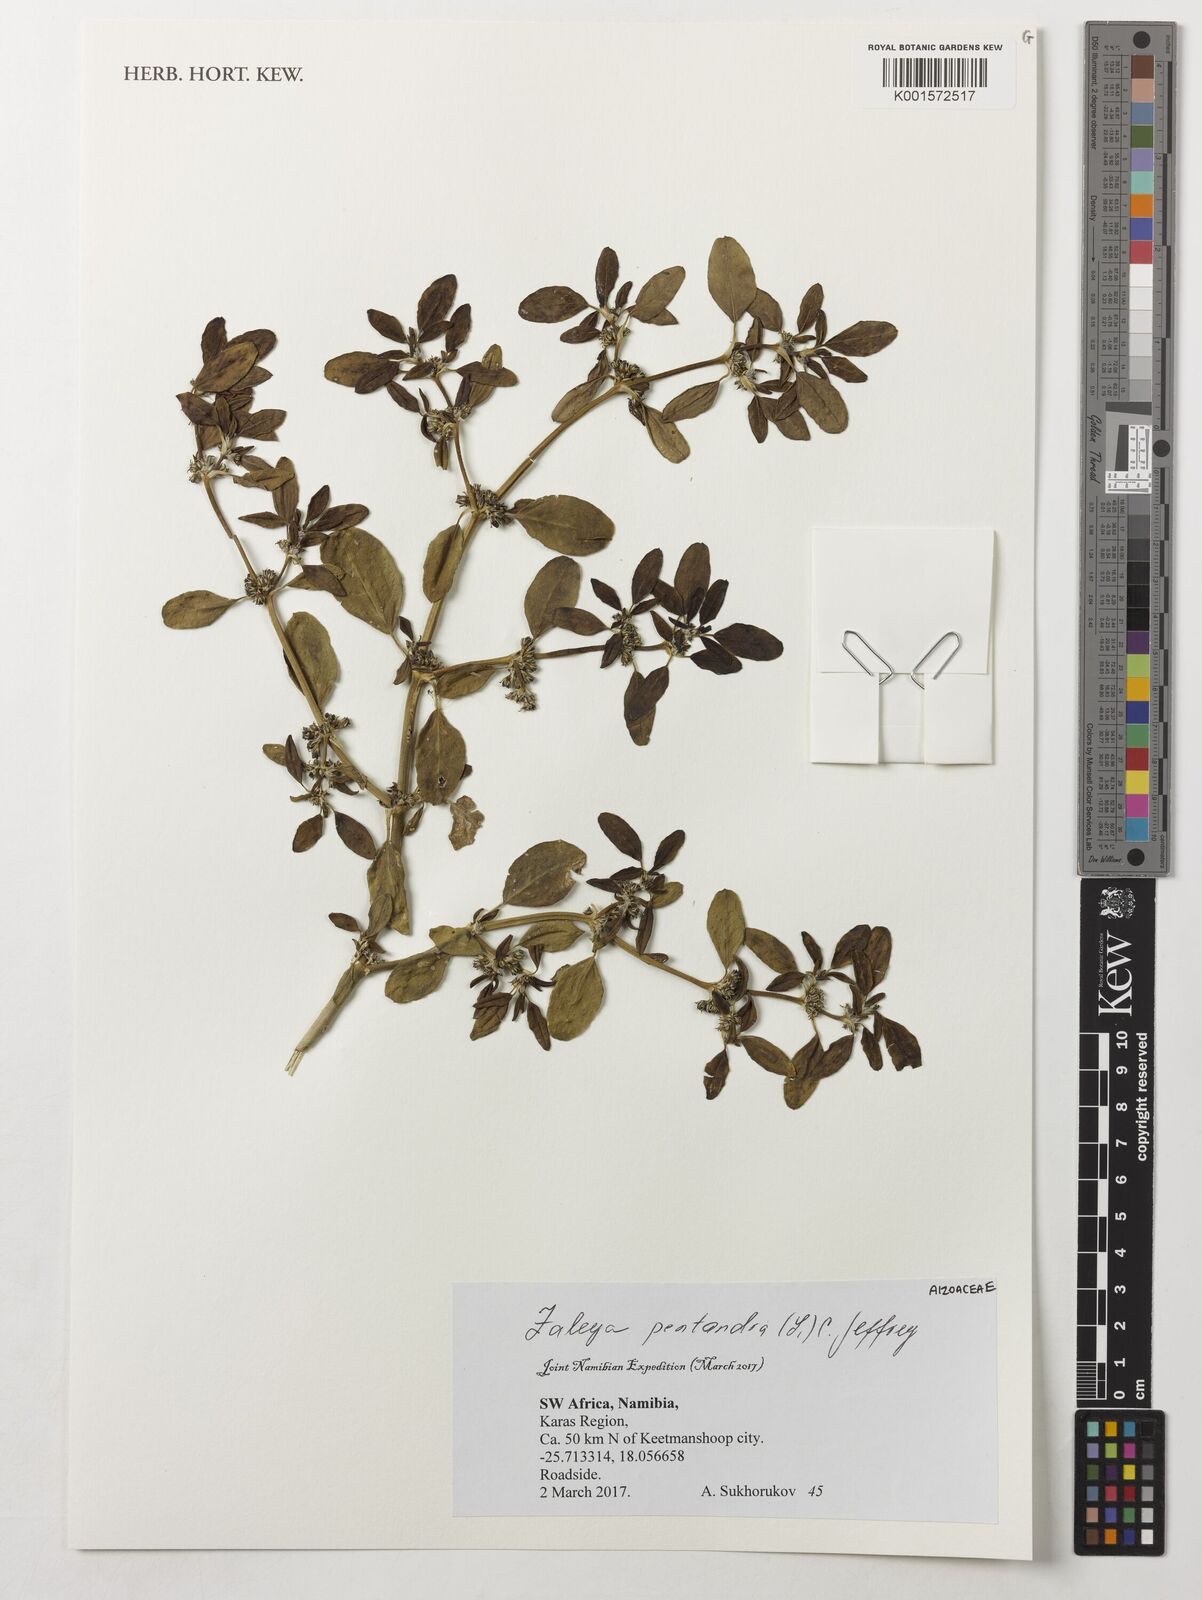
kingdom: Plantae
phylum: Tracheophyta
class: Magnoliopsida
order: Caryophyllales
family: Aizoaceae
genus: Zaleya
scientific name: Zaleya pentandra
